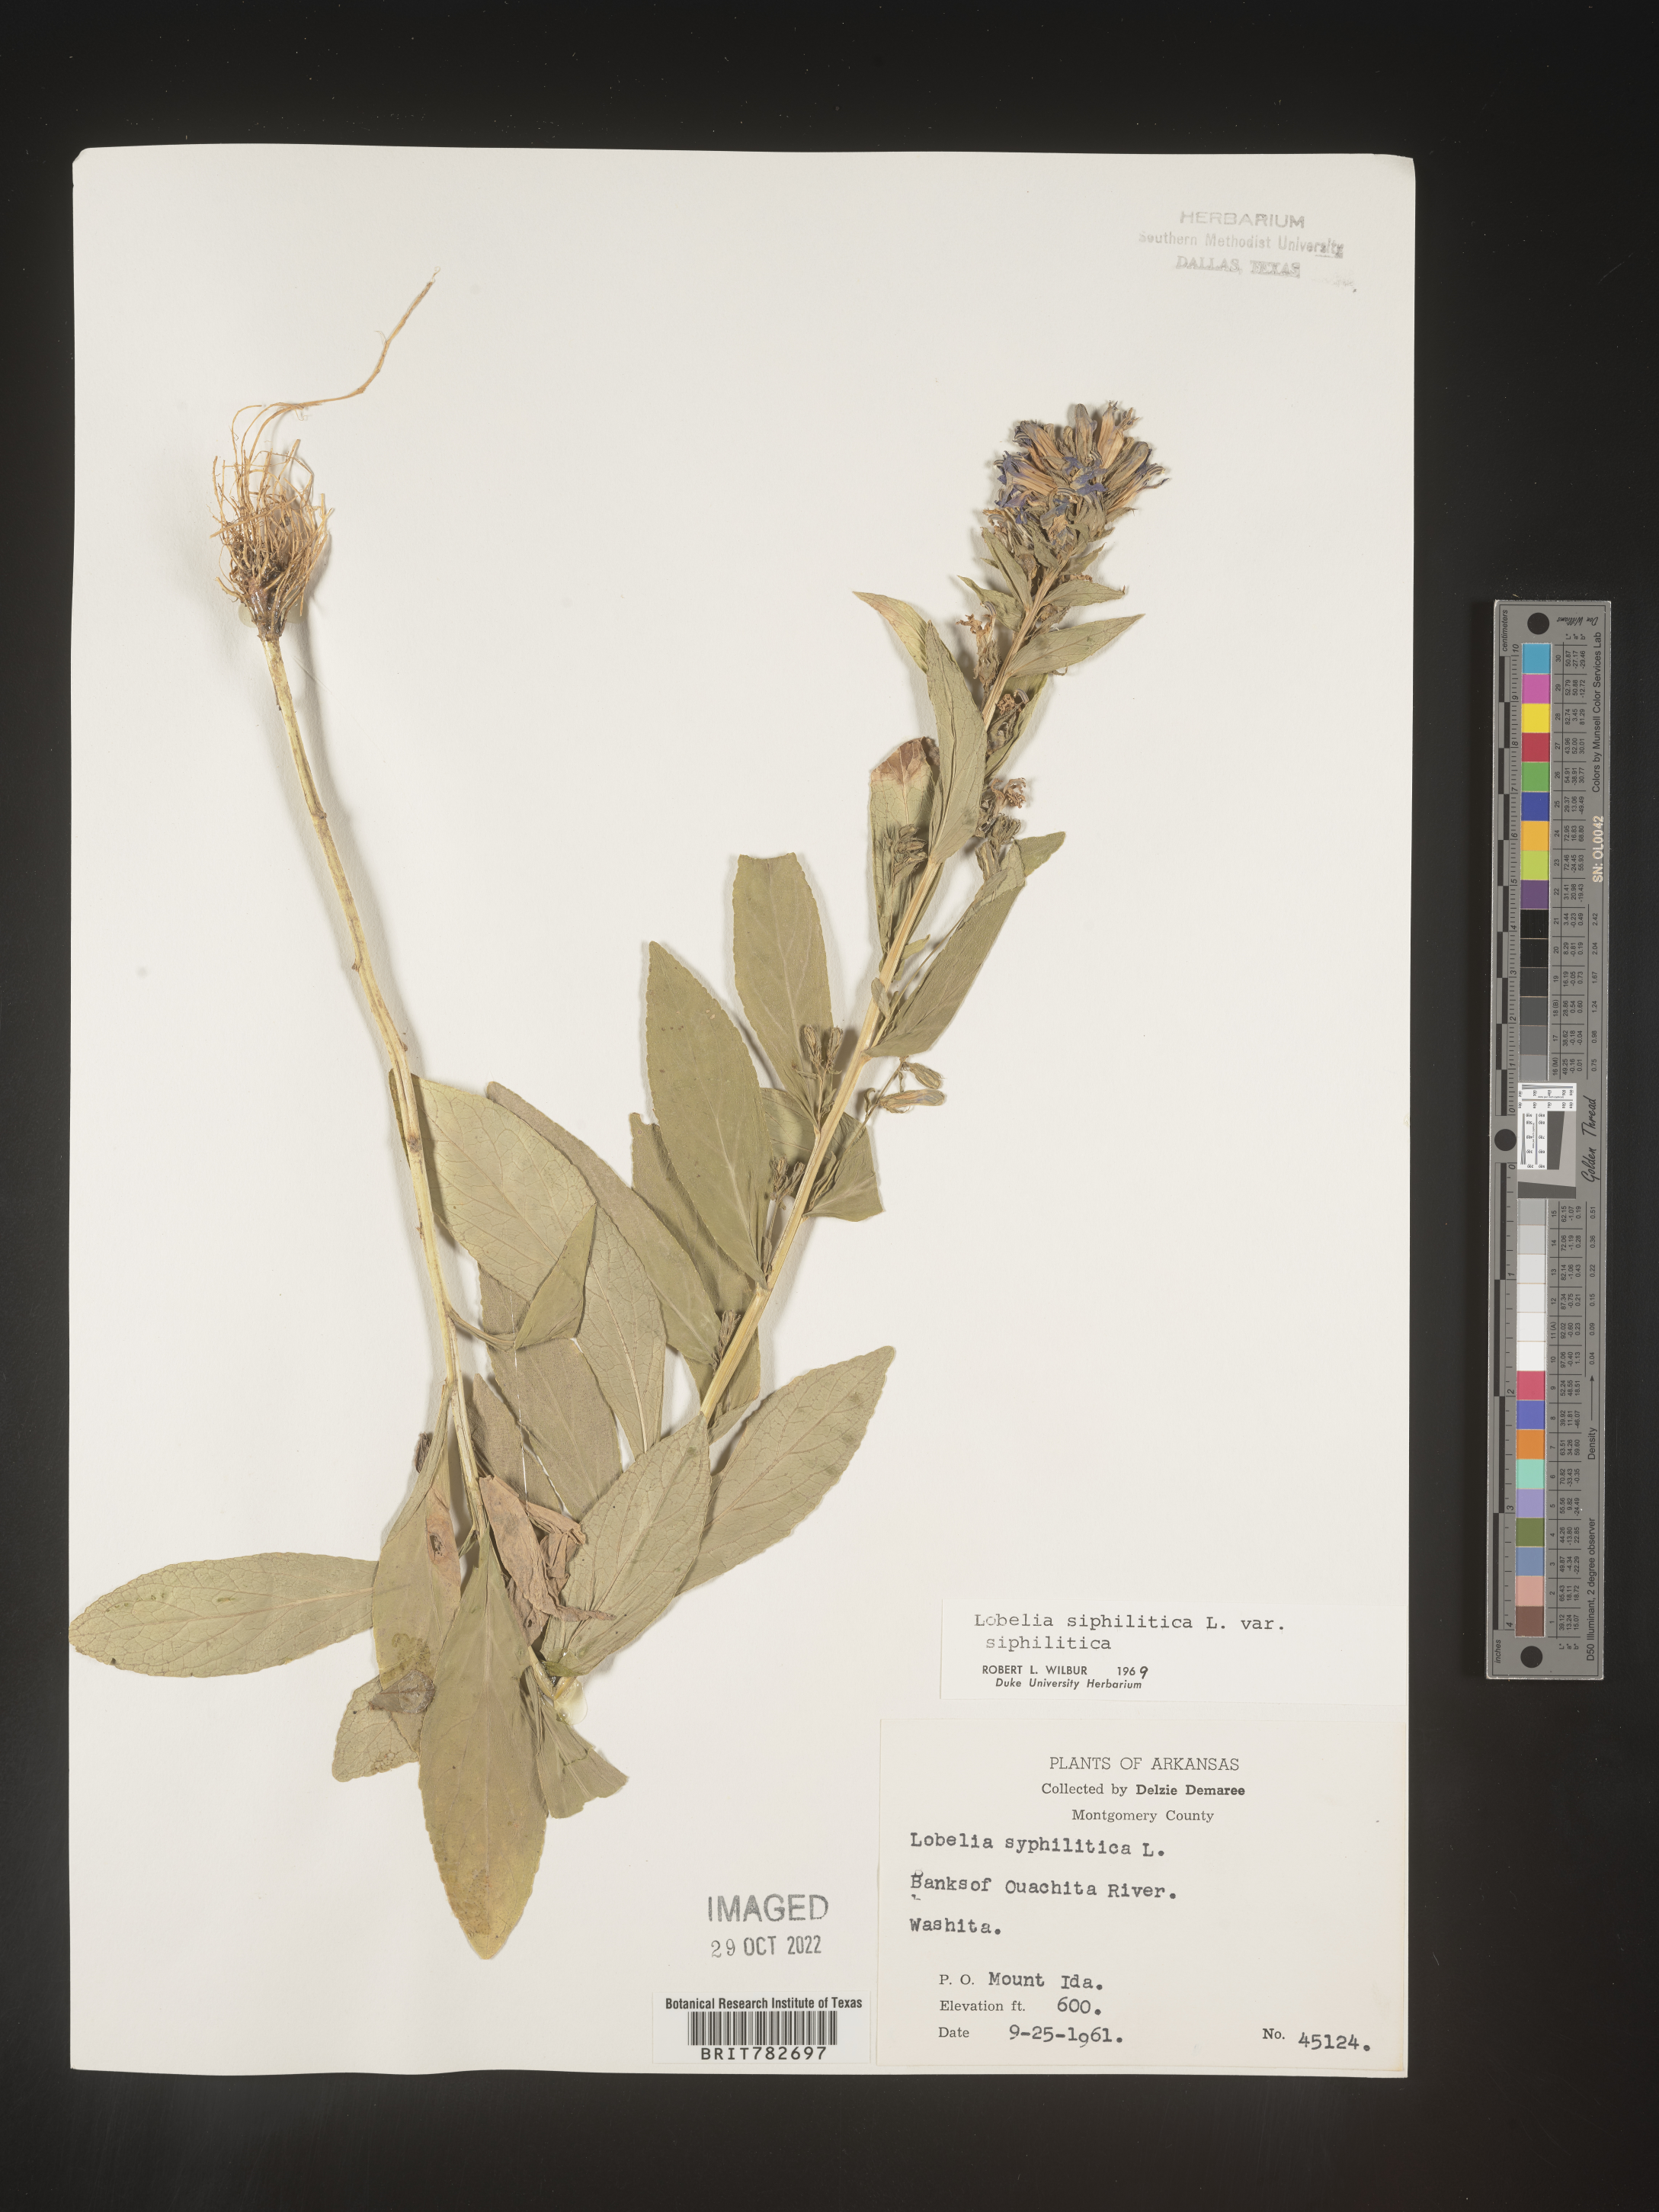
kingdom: Plantae
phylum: Tracheophyta
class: Magnoliopsida
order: Asterales
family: Campanulaceae
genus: Lobelia
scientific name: Lobelia siphilitica
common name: Great lobelia
